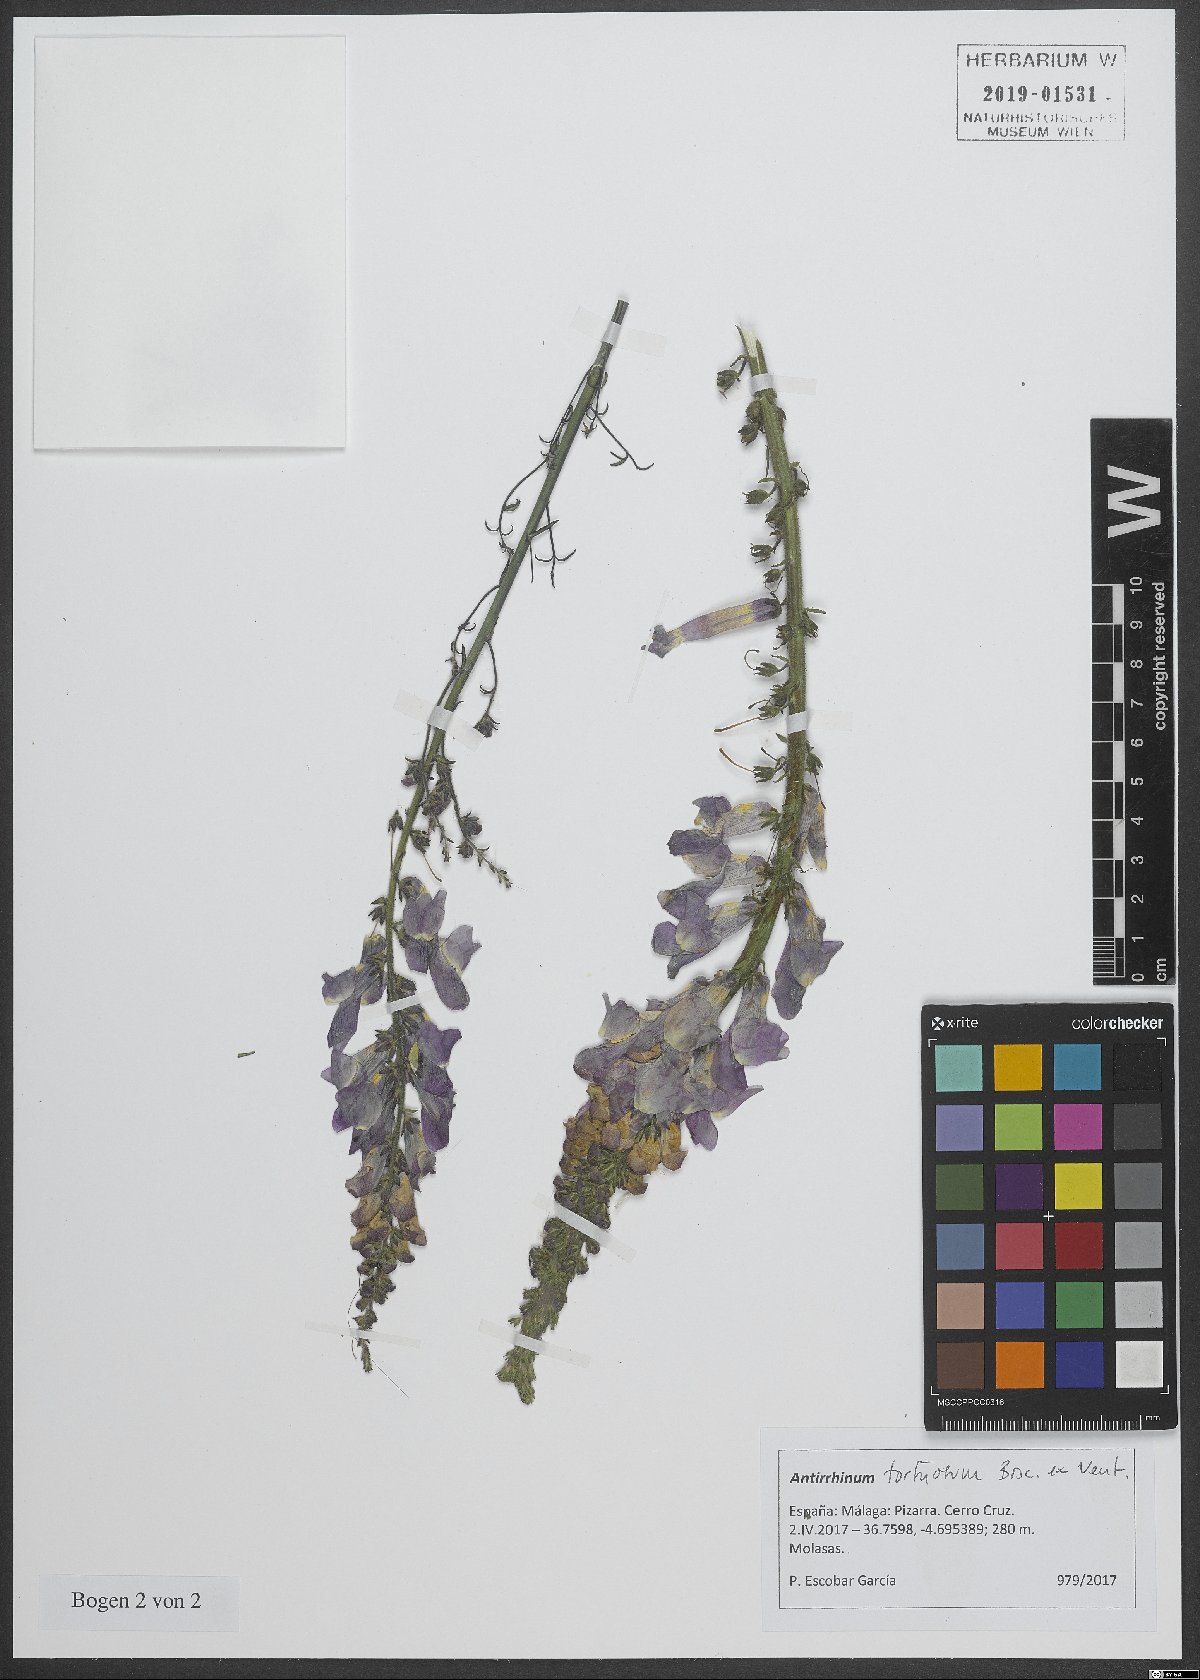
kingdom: Plantae
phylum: Tracheophyta
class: Magnoliopsida
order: Lamiales
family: Plantaginaceae
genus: Antirrhinum
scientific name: Antirrhinum tortuosum
